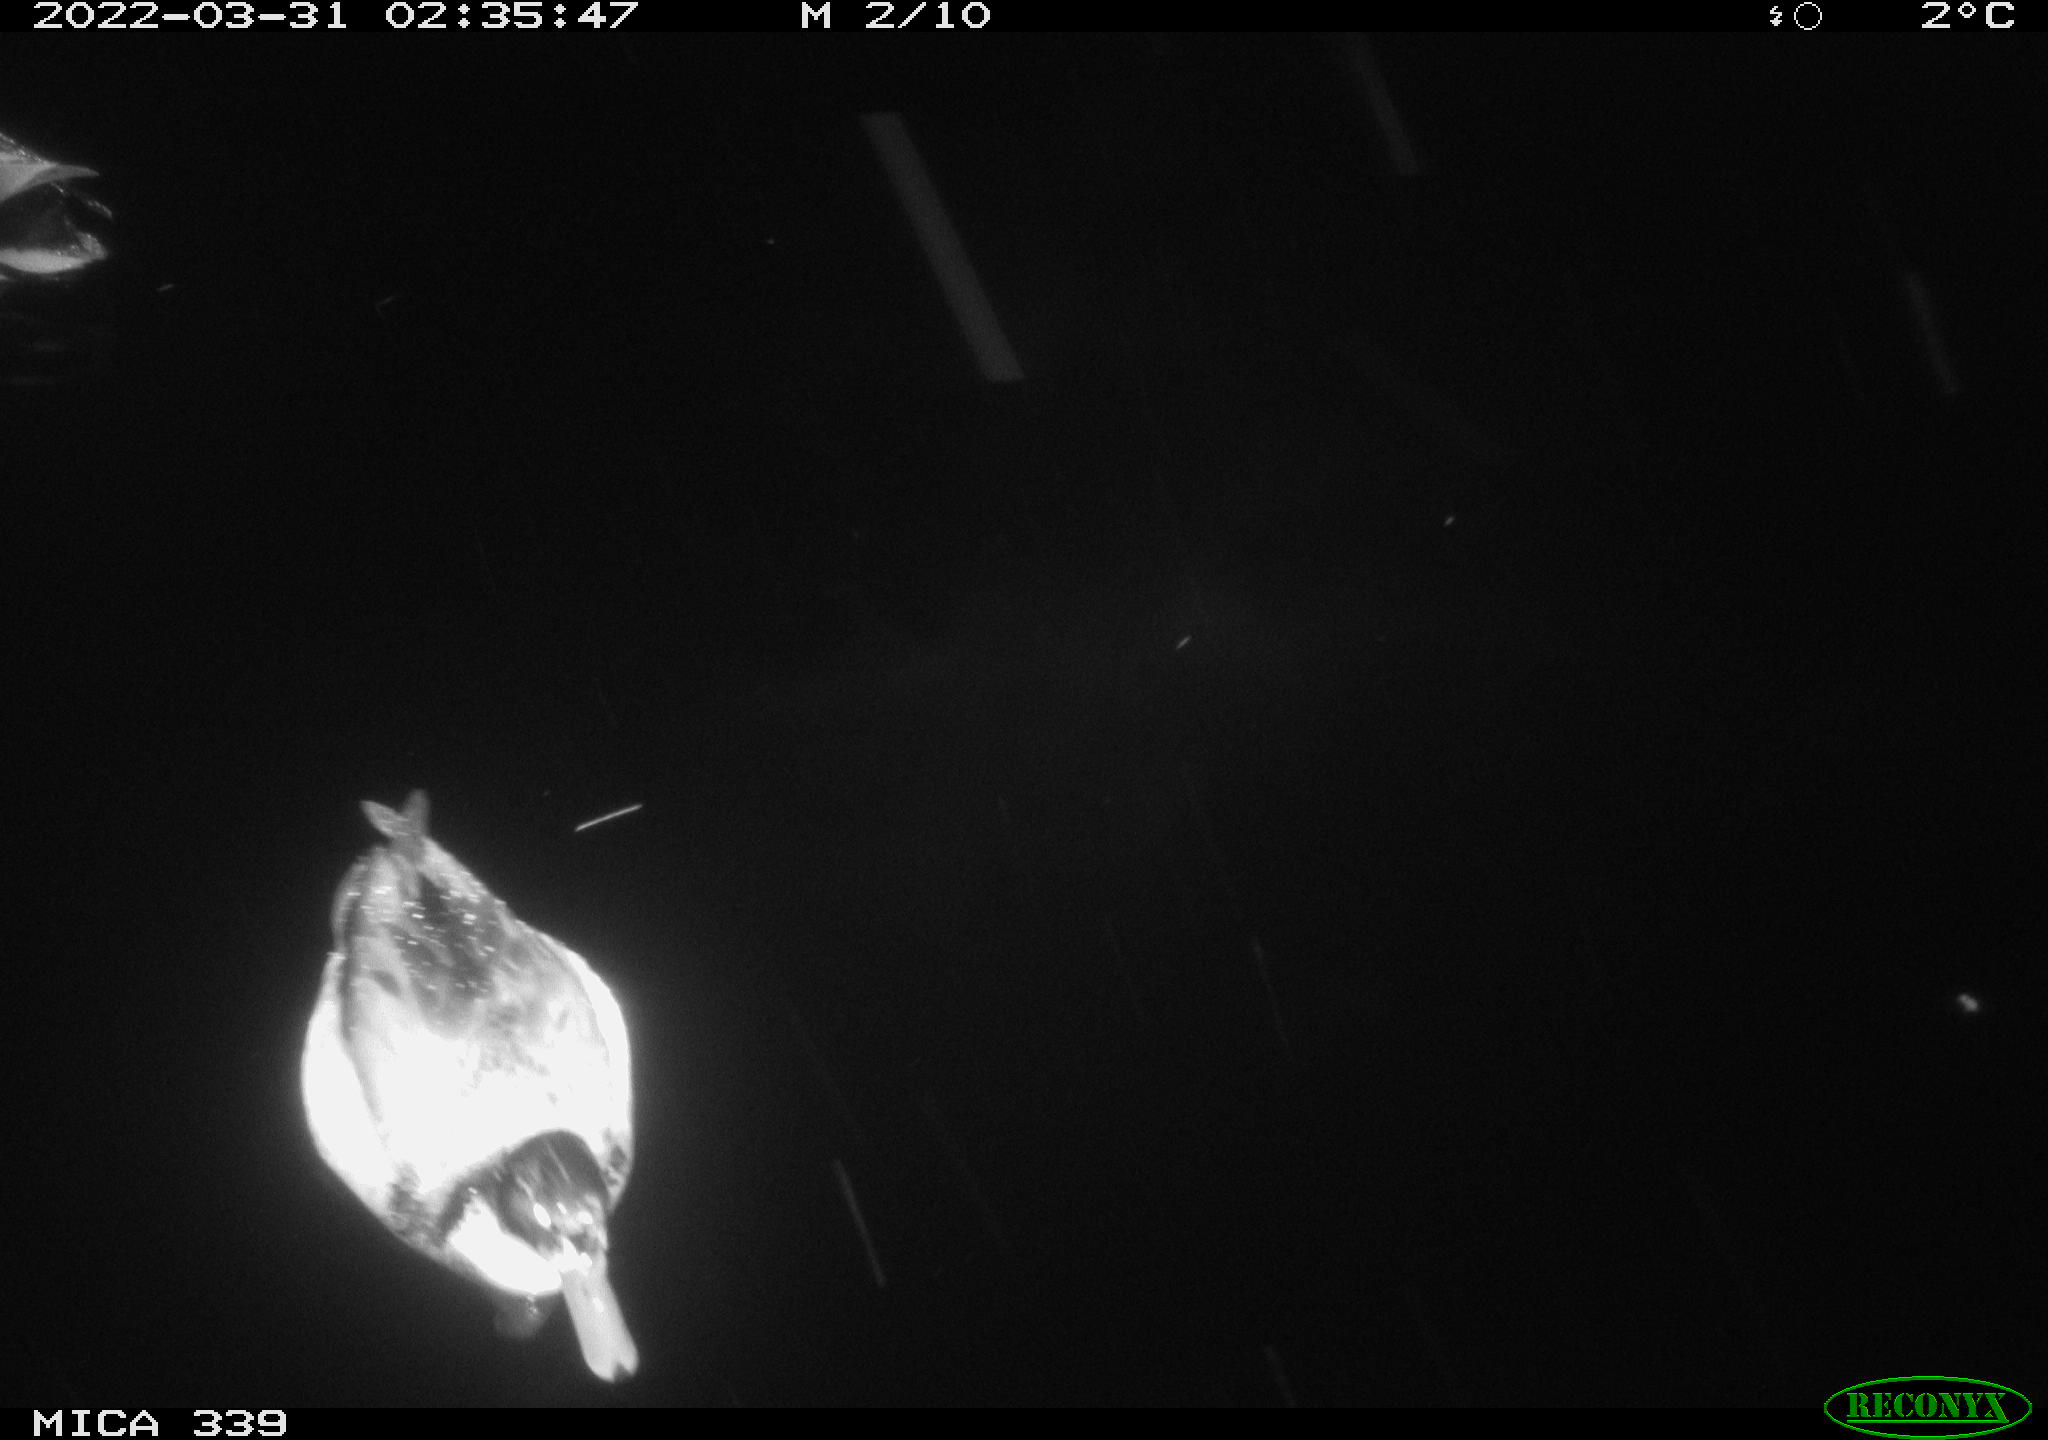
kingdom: Animalia
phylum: Chordata
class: Aves
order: Anseriformes
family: Anatidae
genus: Anas
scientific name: Anas platyrhynchos
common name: Mallard
